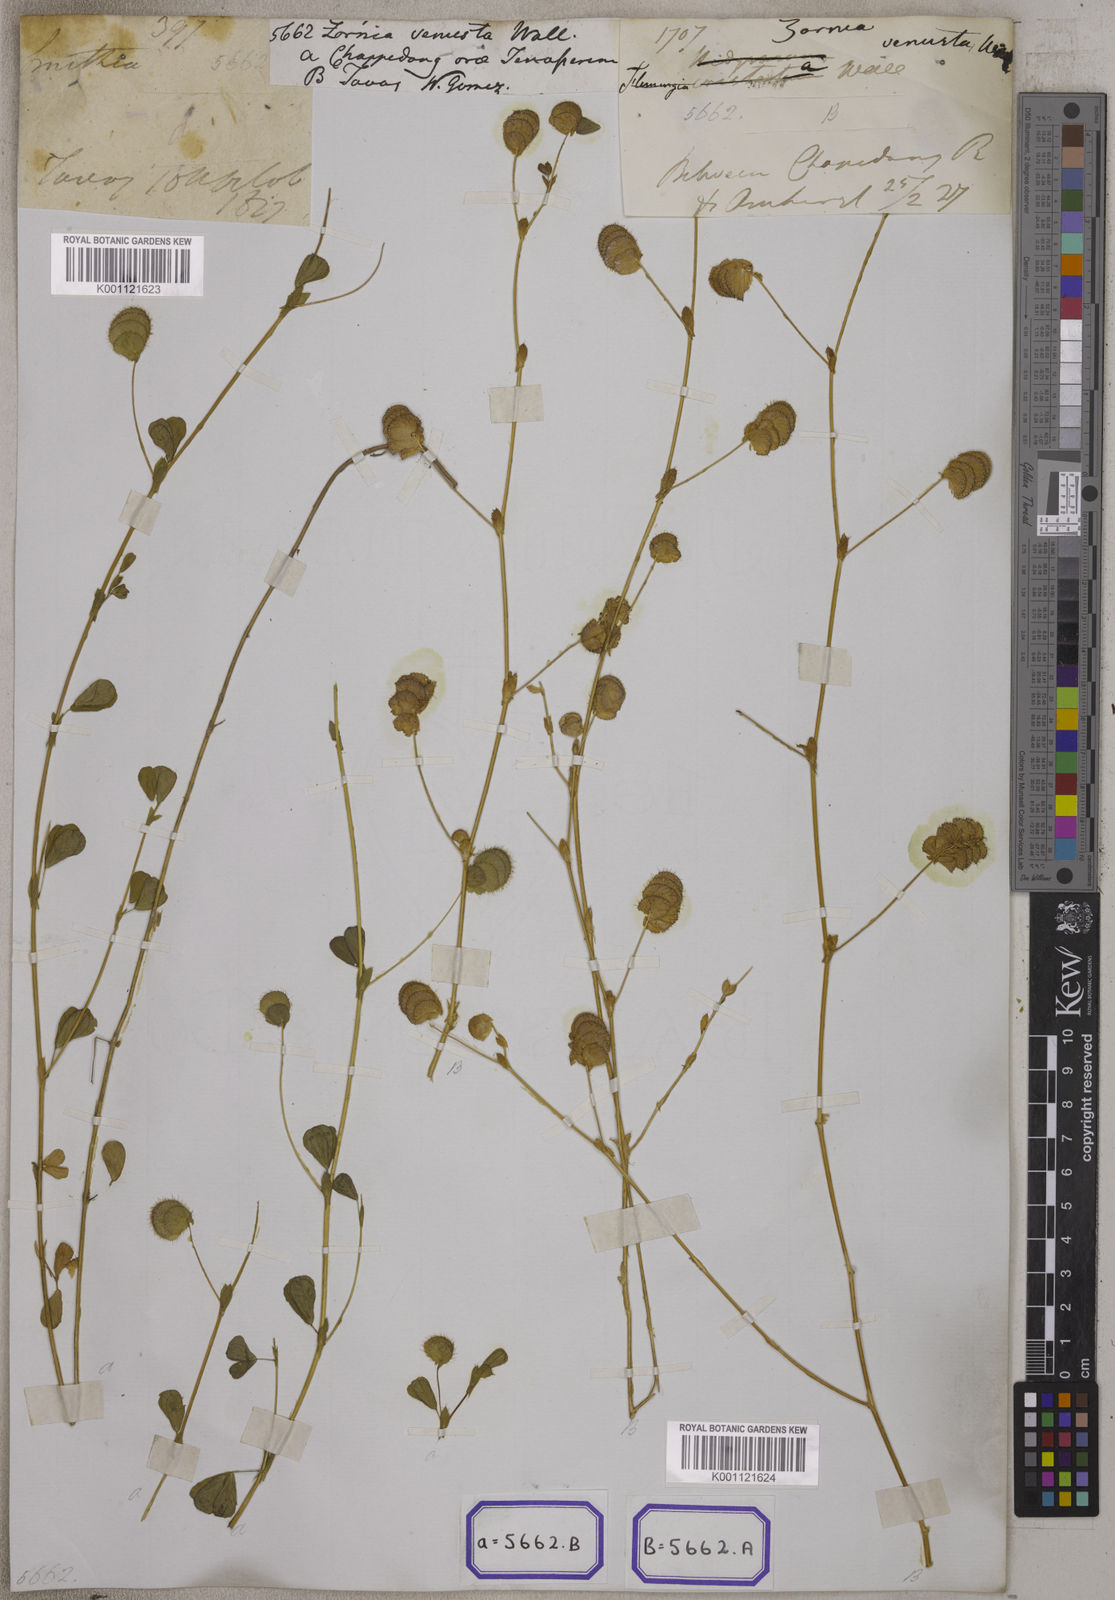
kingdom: Plantae
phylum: Tracheophyta
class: Magnoliopsida
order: Fabales
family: Fabaceae
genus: Zornia
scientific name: Zornia
